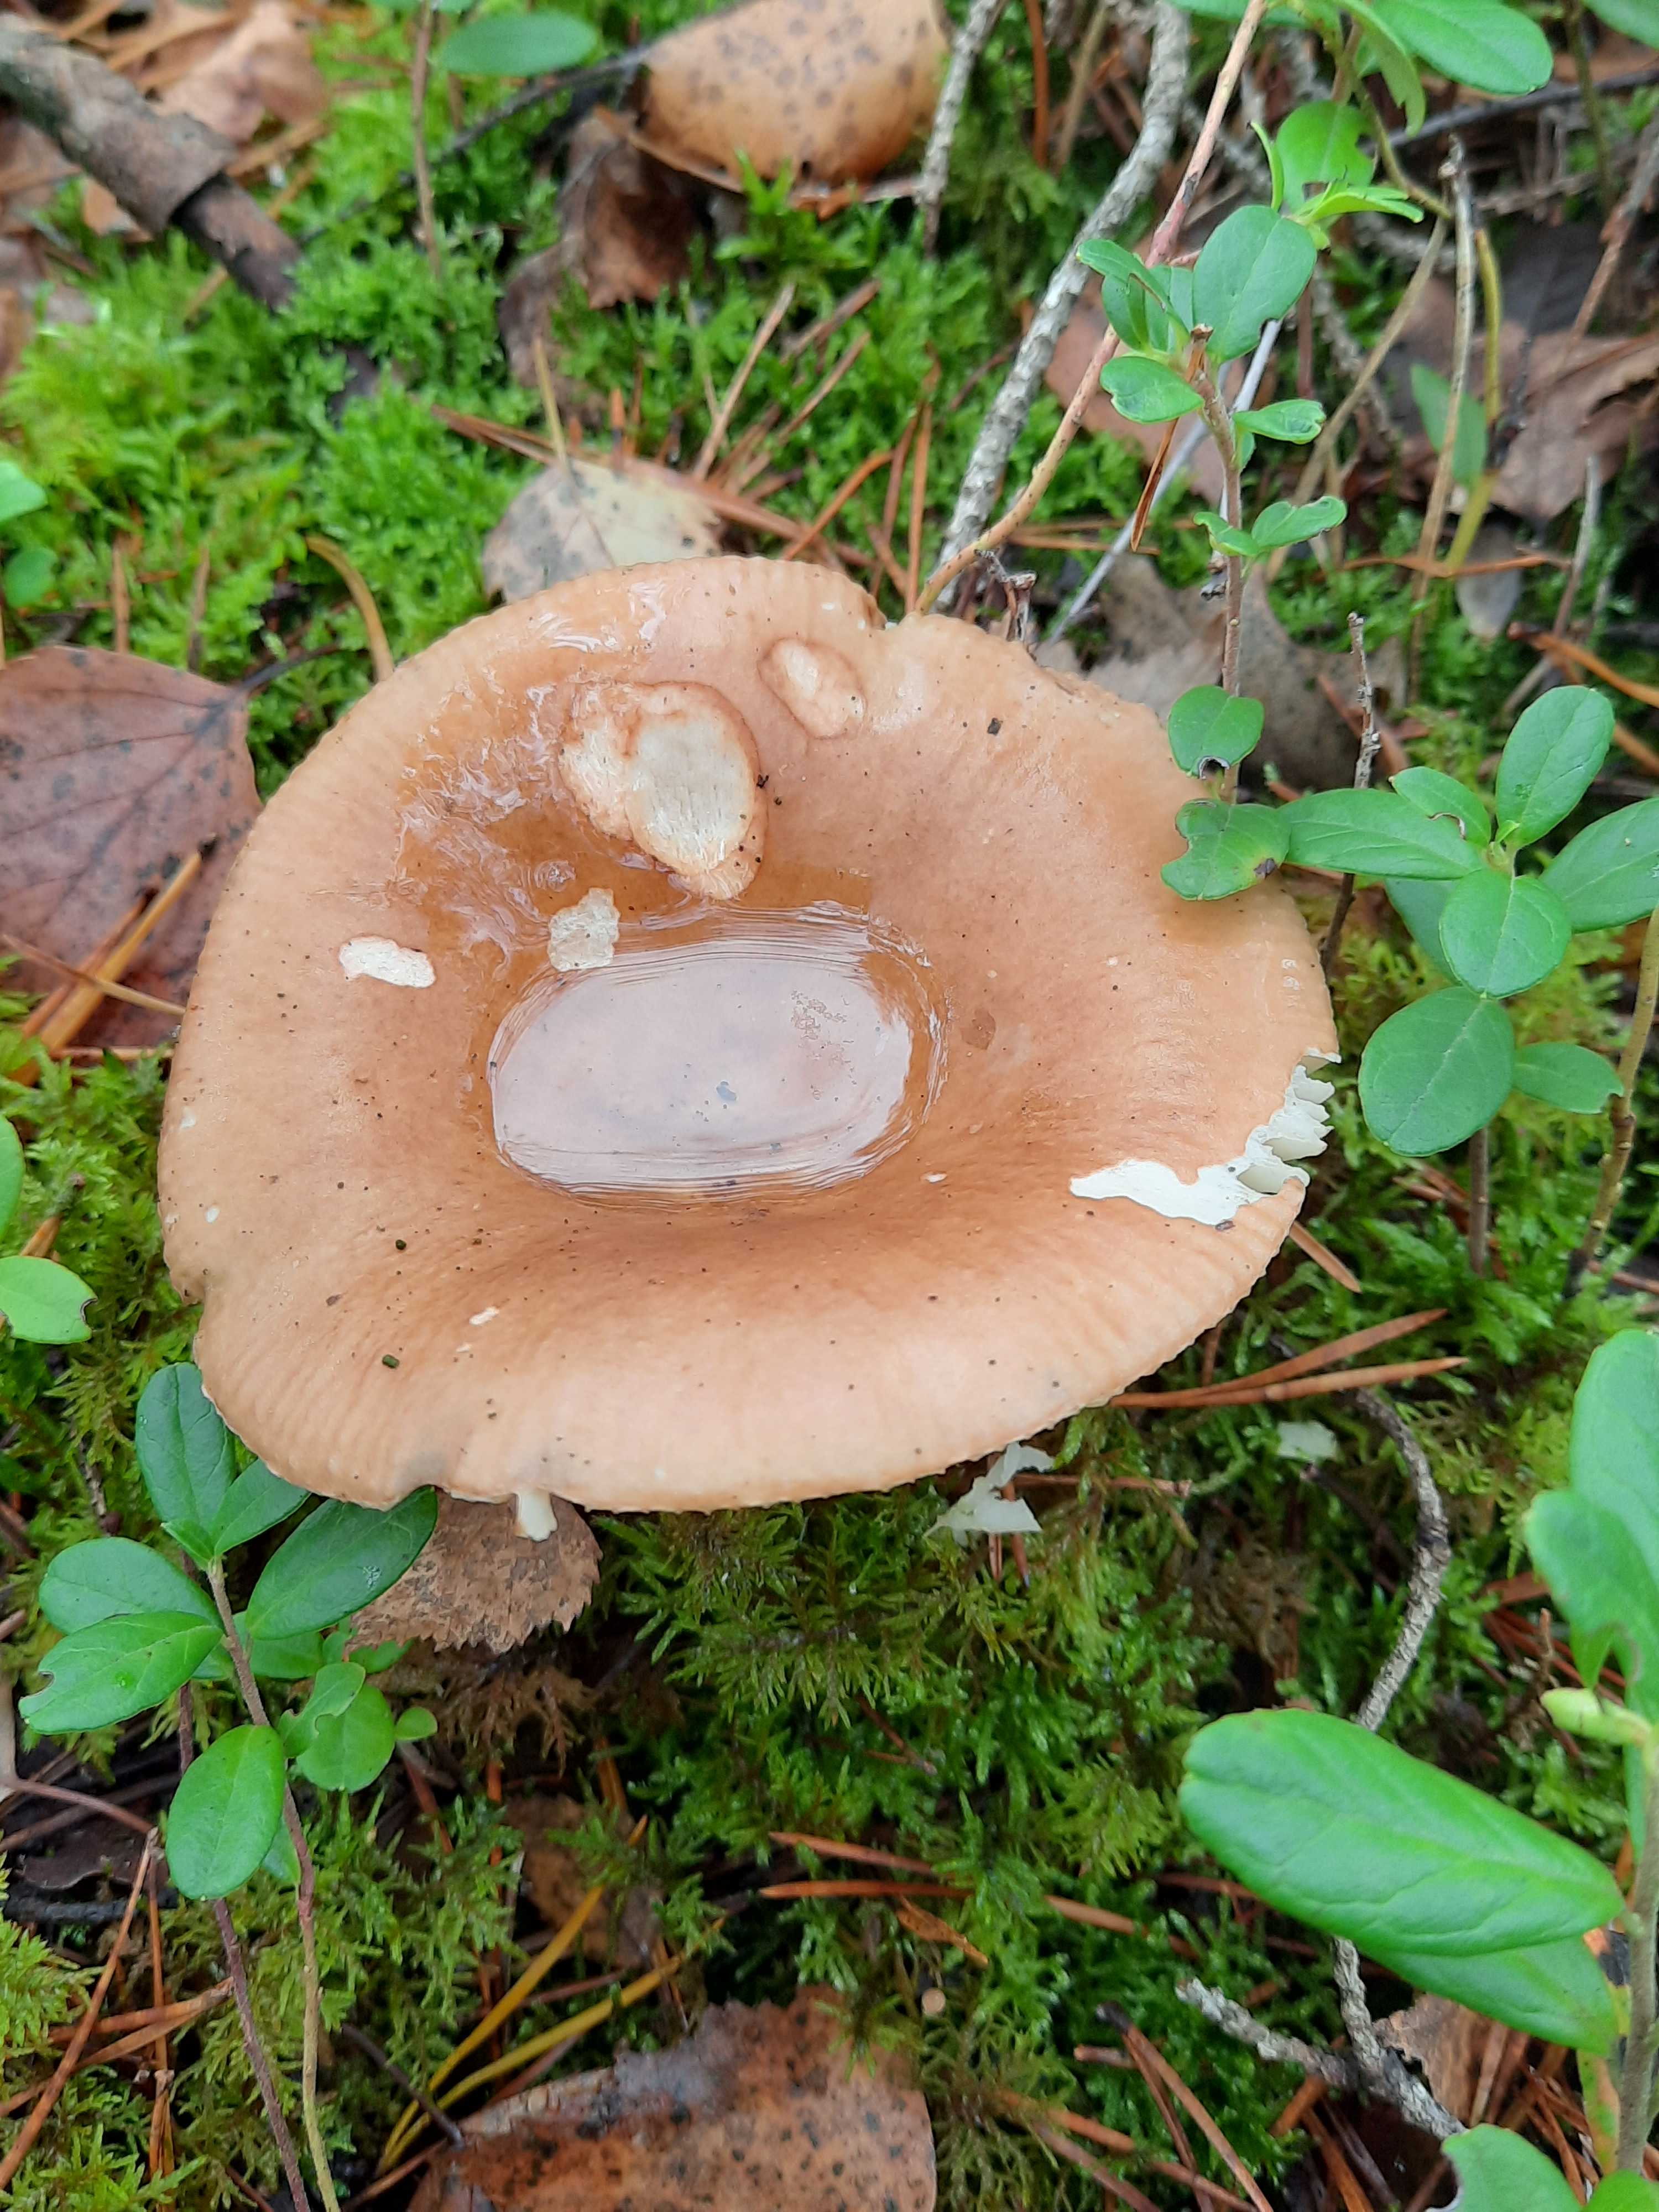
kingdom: Fungi
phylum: Basidiomycota
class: Agaricomycetes
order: Russulales
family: Russulaceae
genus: Russula
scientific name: Russula
